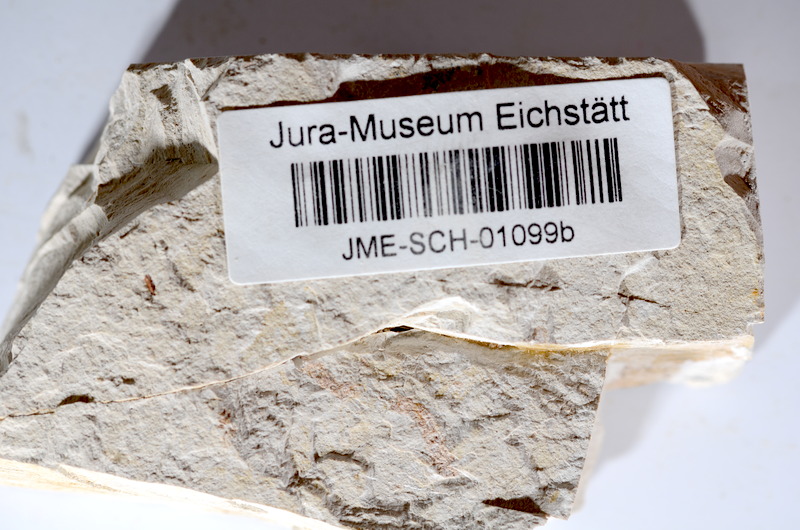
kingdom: Animalia
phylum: Chordata
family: Ascalaboidae
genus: Tharsis
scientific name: Tharsis dubius
